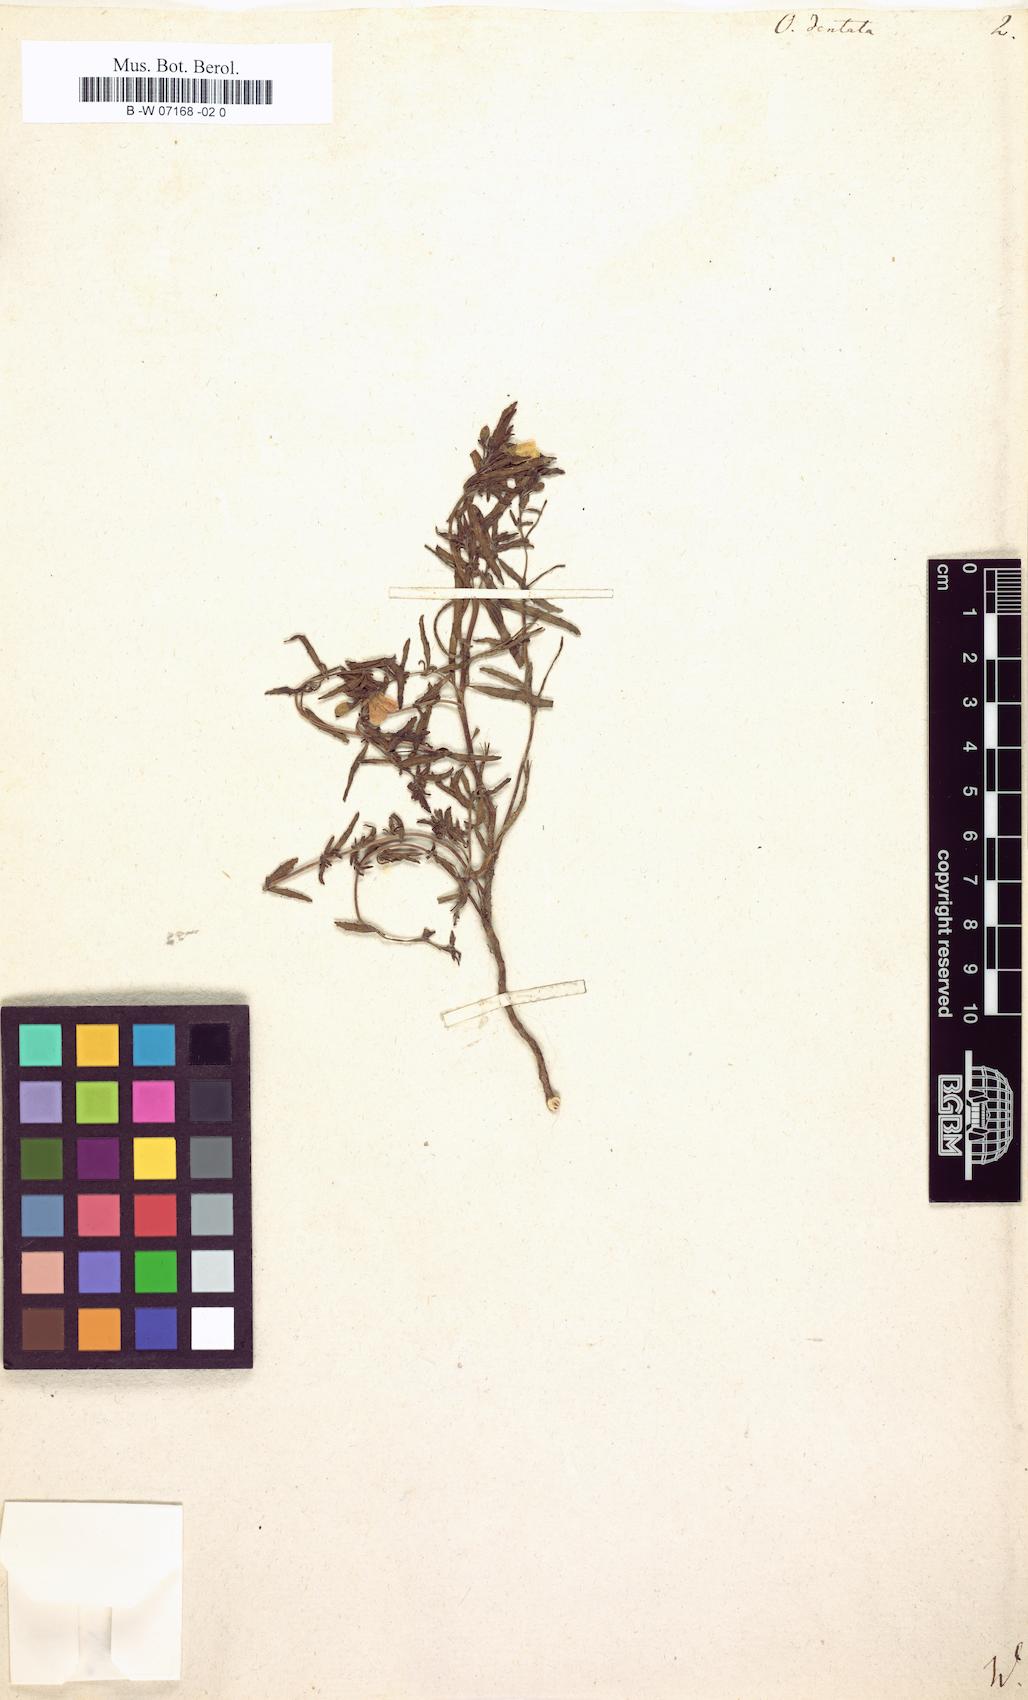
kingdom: Plantae
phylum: Tracheophyta
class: Magnoliopsida
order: Myrtales
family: Onagraceae
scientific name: Onagraceae
